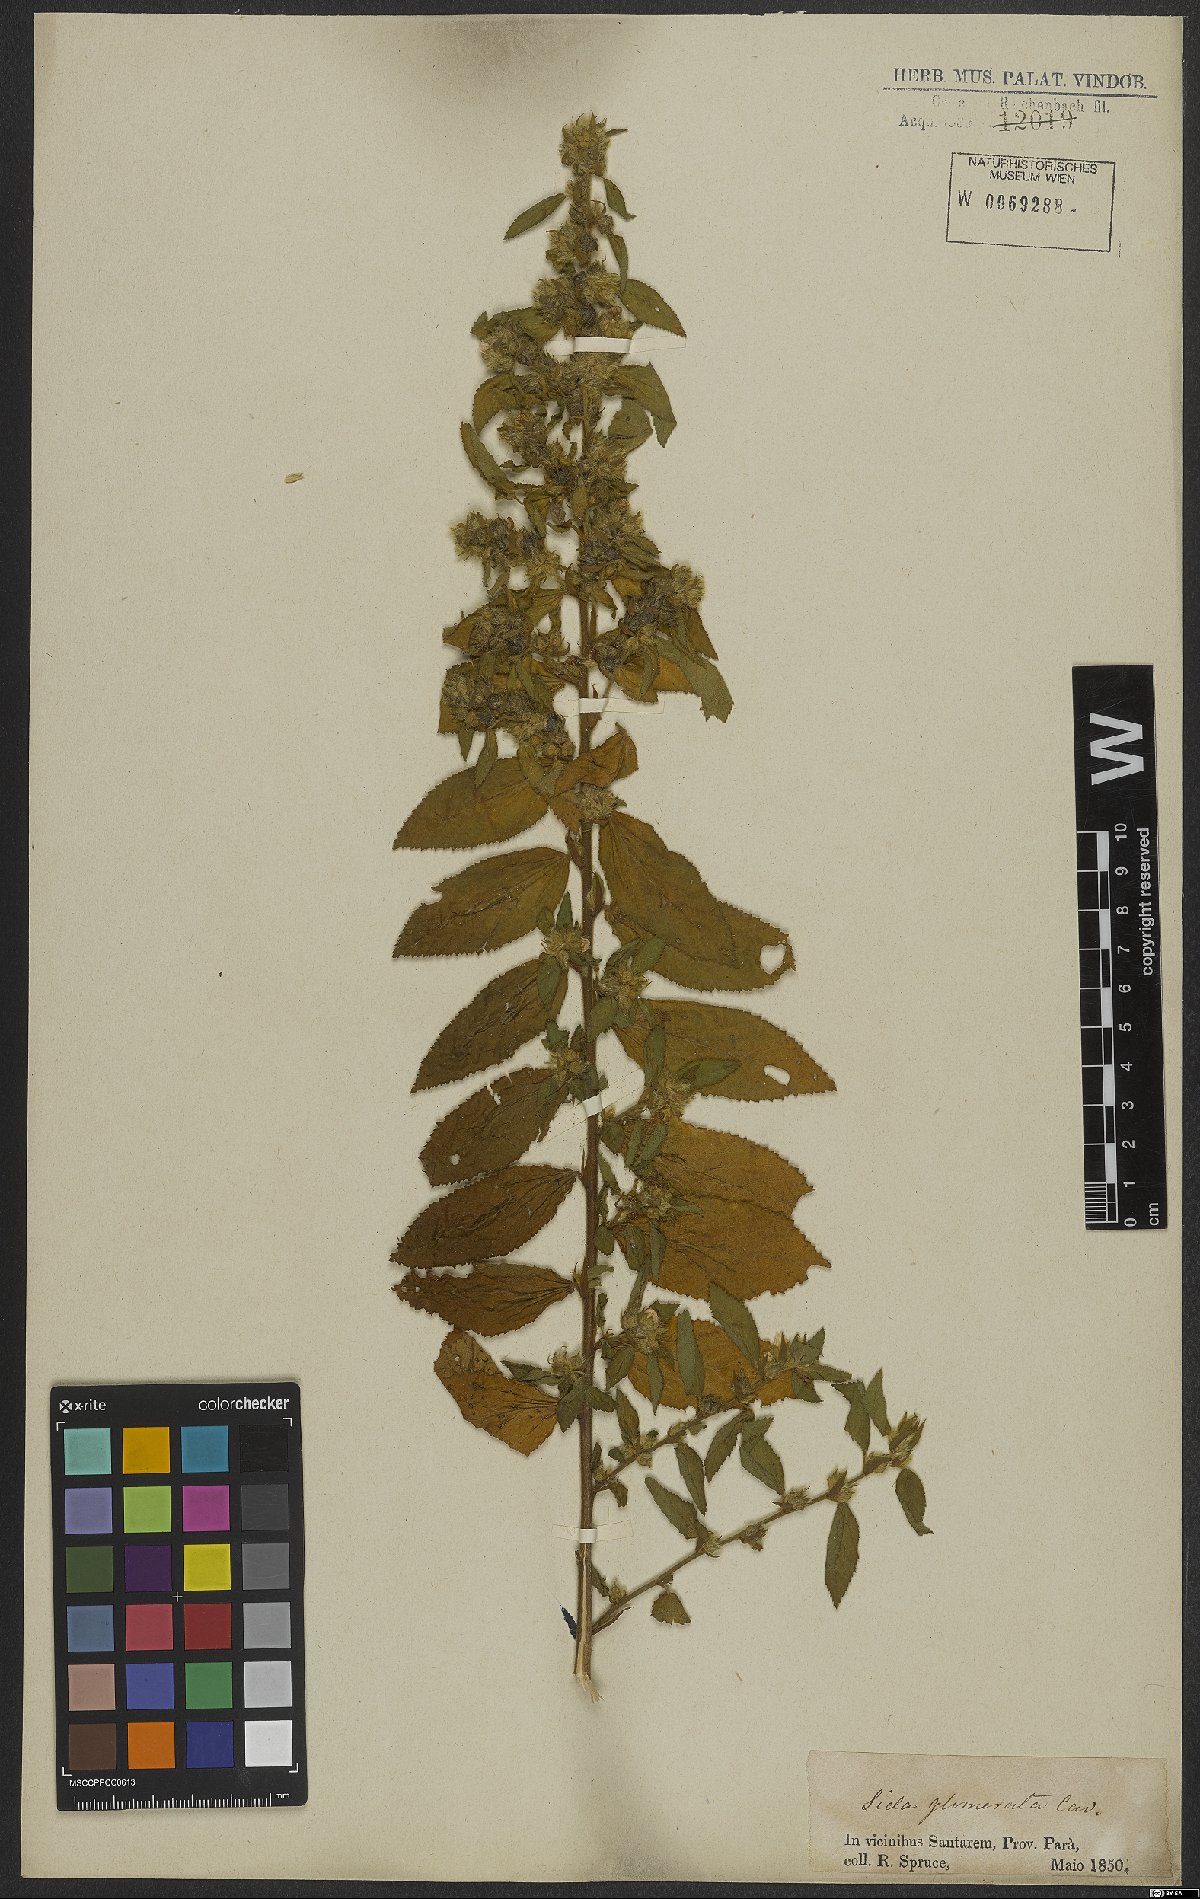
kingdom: Plantae
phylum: Tracheophyta
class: Magnoliopsida
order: Malvales
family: Malvaceae
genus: Sida
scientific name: Sida glomerata
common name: Clustered fanpetals
